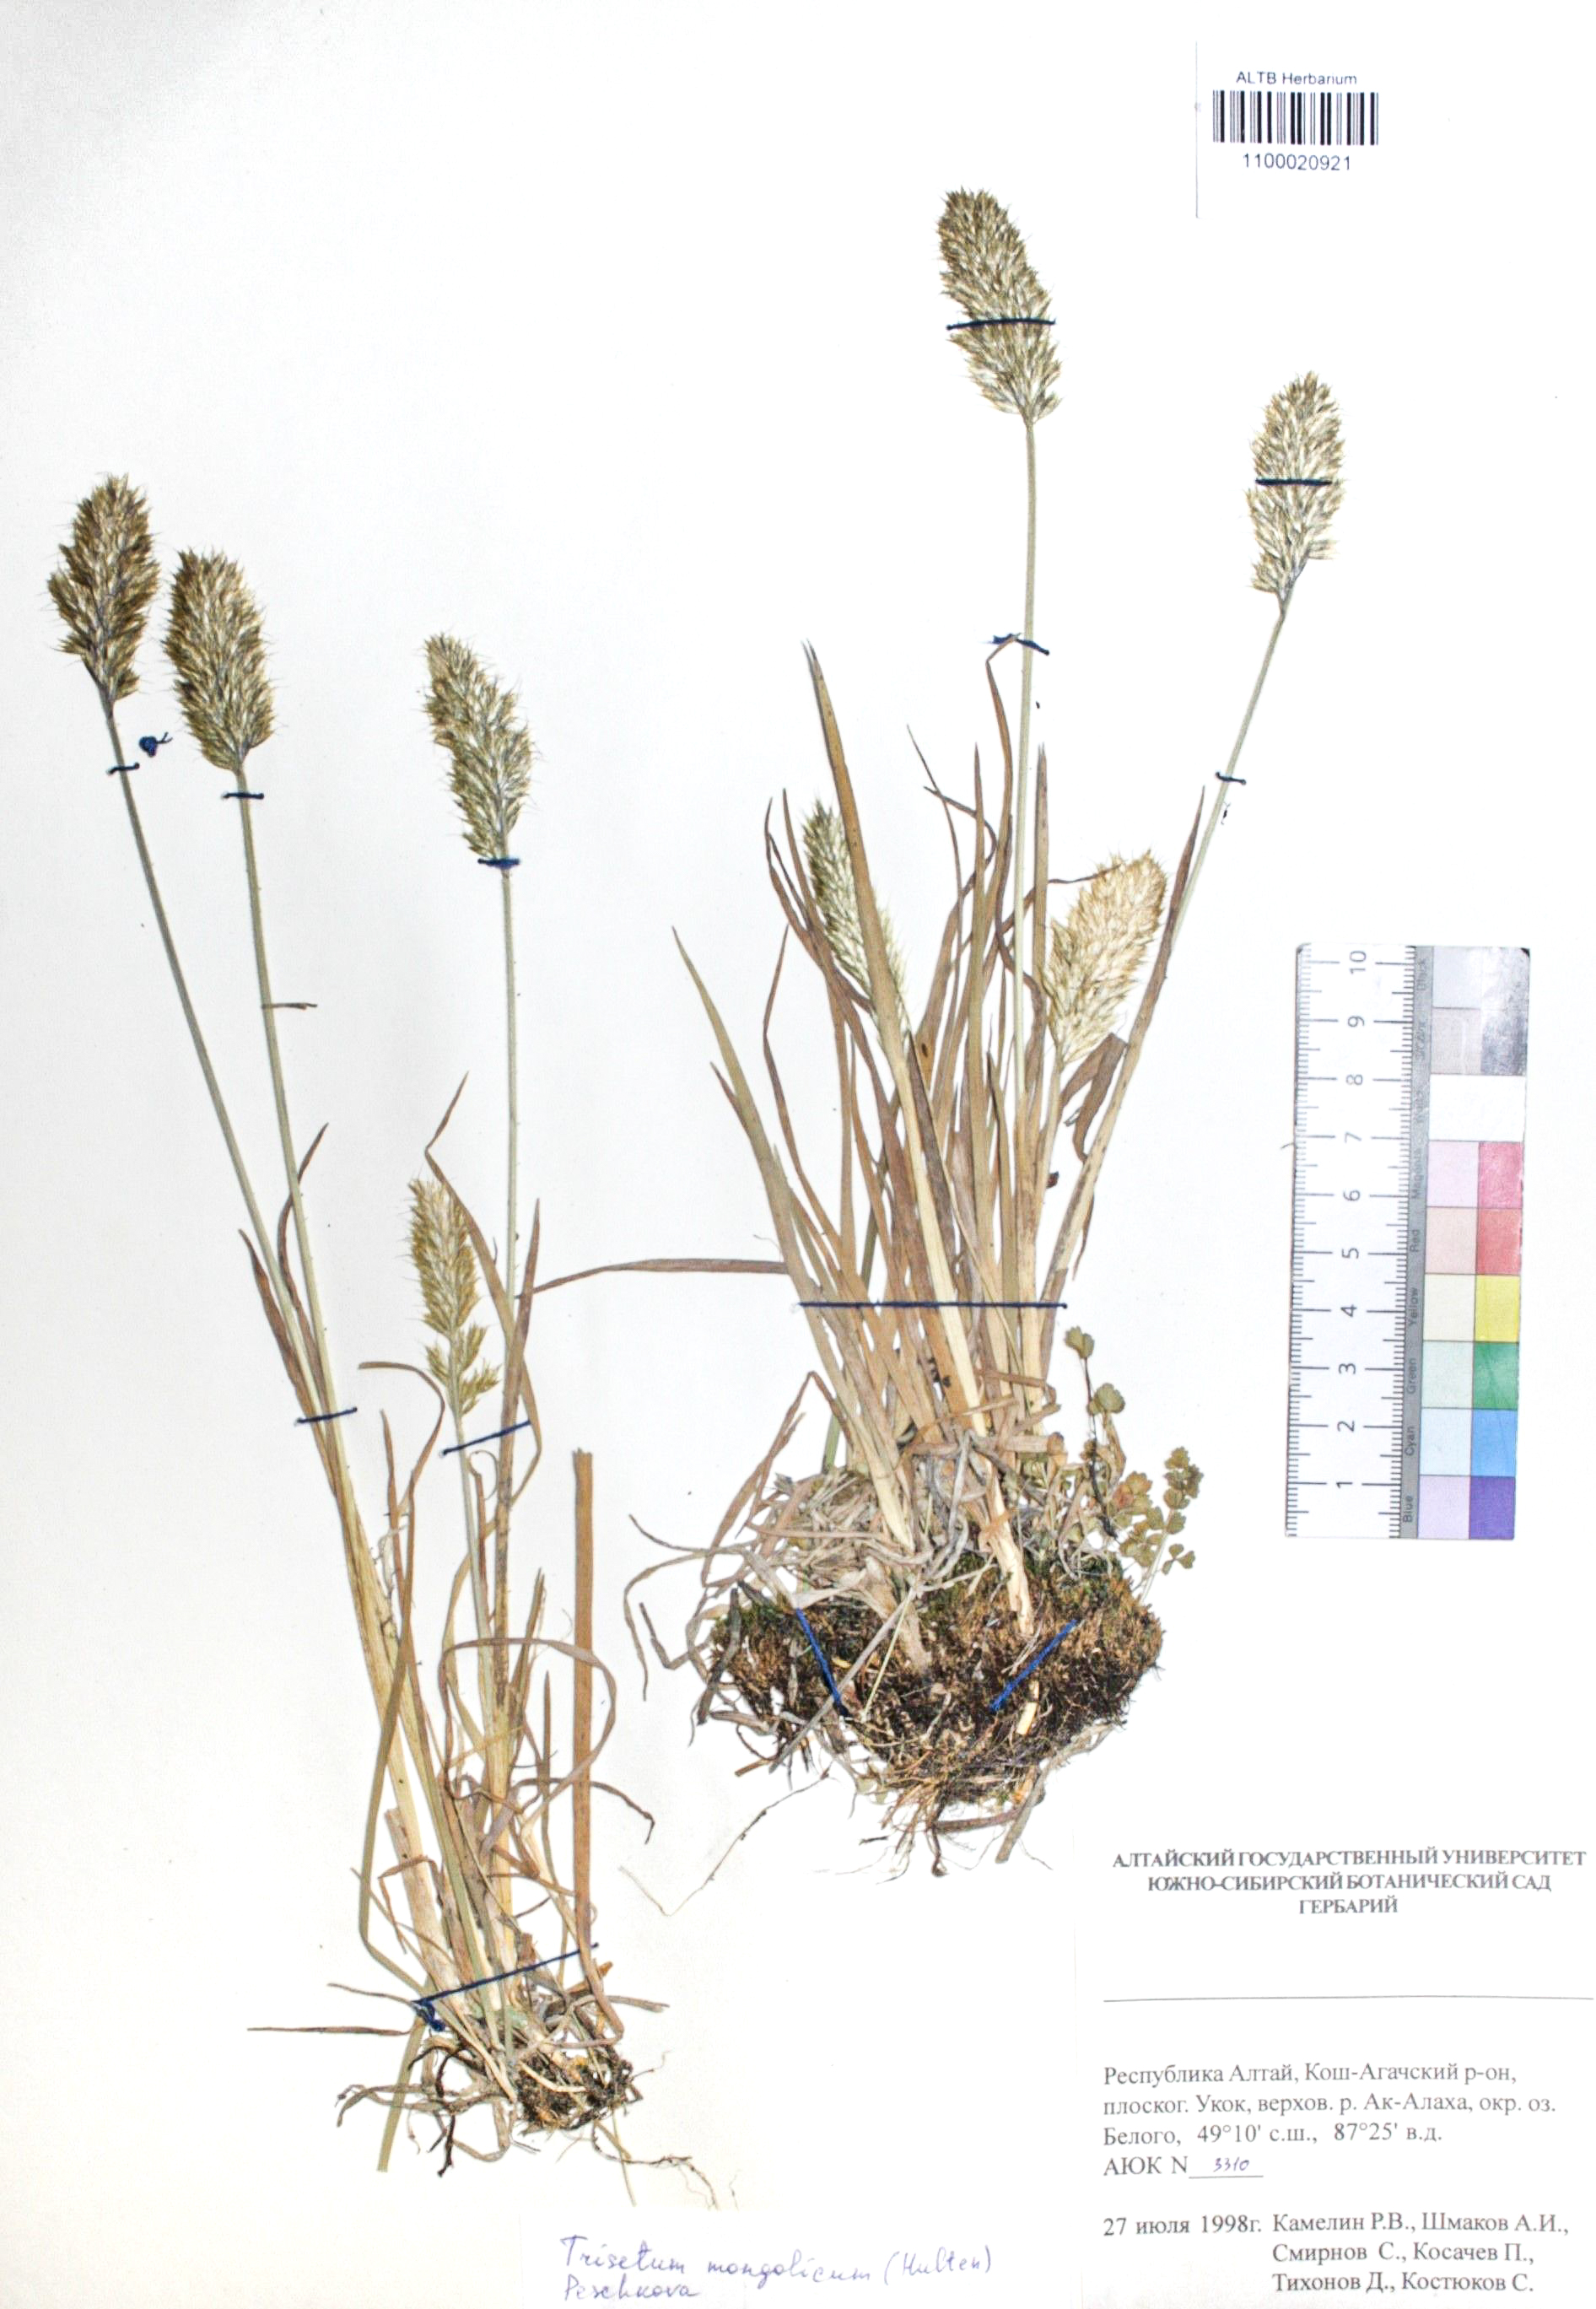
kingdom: Plantae
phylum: Tracheophyta
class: Liliopsida
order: Poales
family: Poaceae
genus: Koeleria
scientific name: Koeleria spicata
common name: Mountain trisetum
